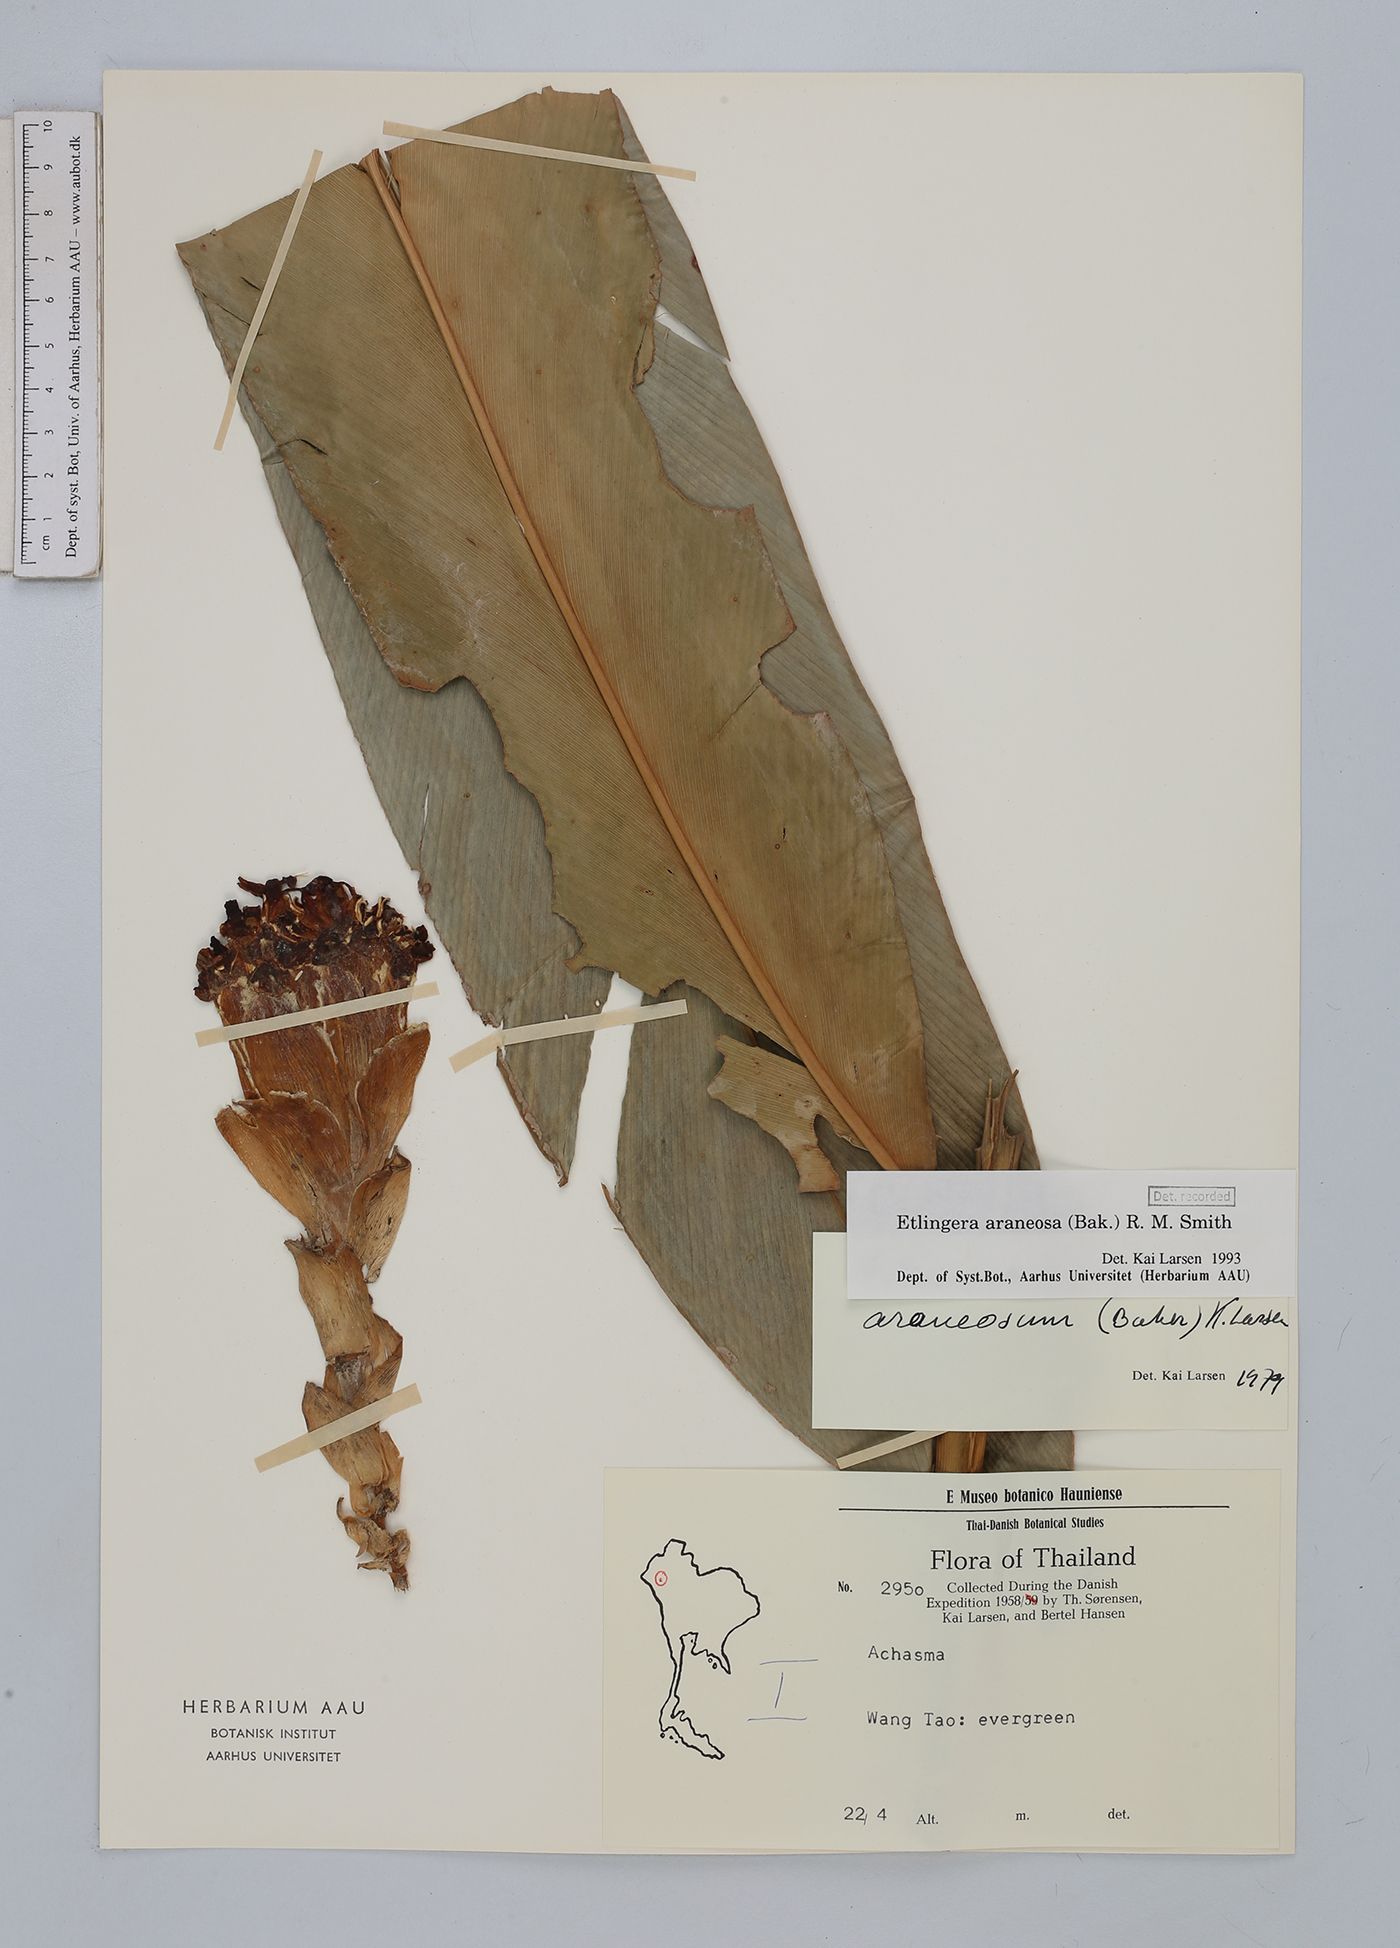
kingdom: Plantae
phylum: Tracheophyta
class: Liliopsida
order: Zingiberales
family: Zingiberaceae
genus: Etlingera
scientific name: Etlingera araneosa
